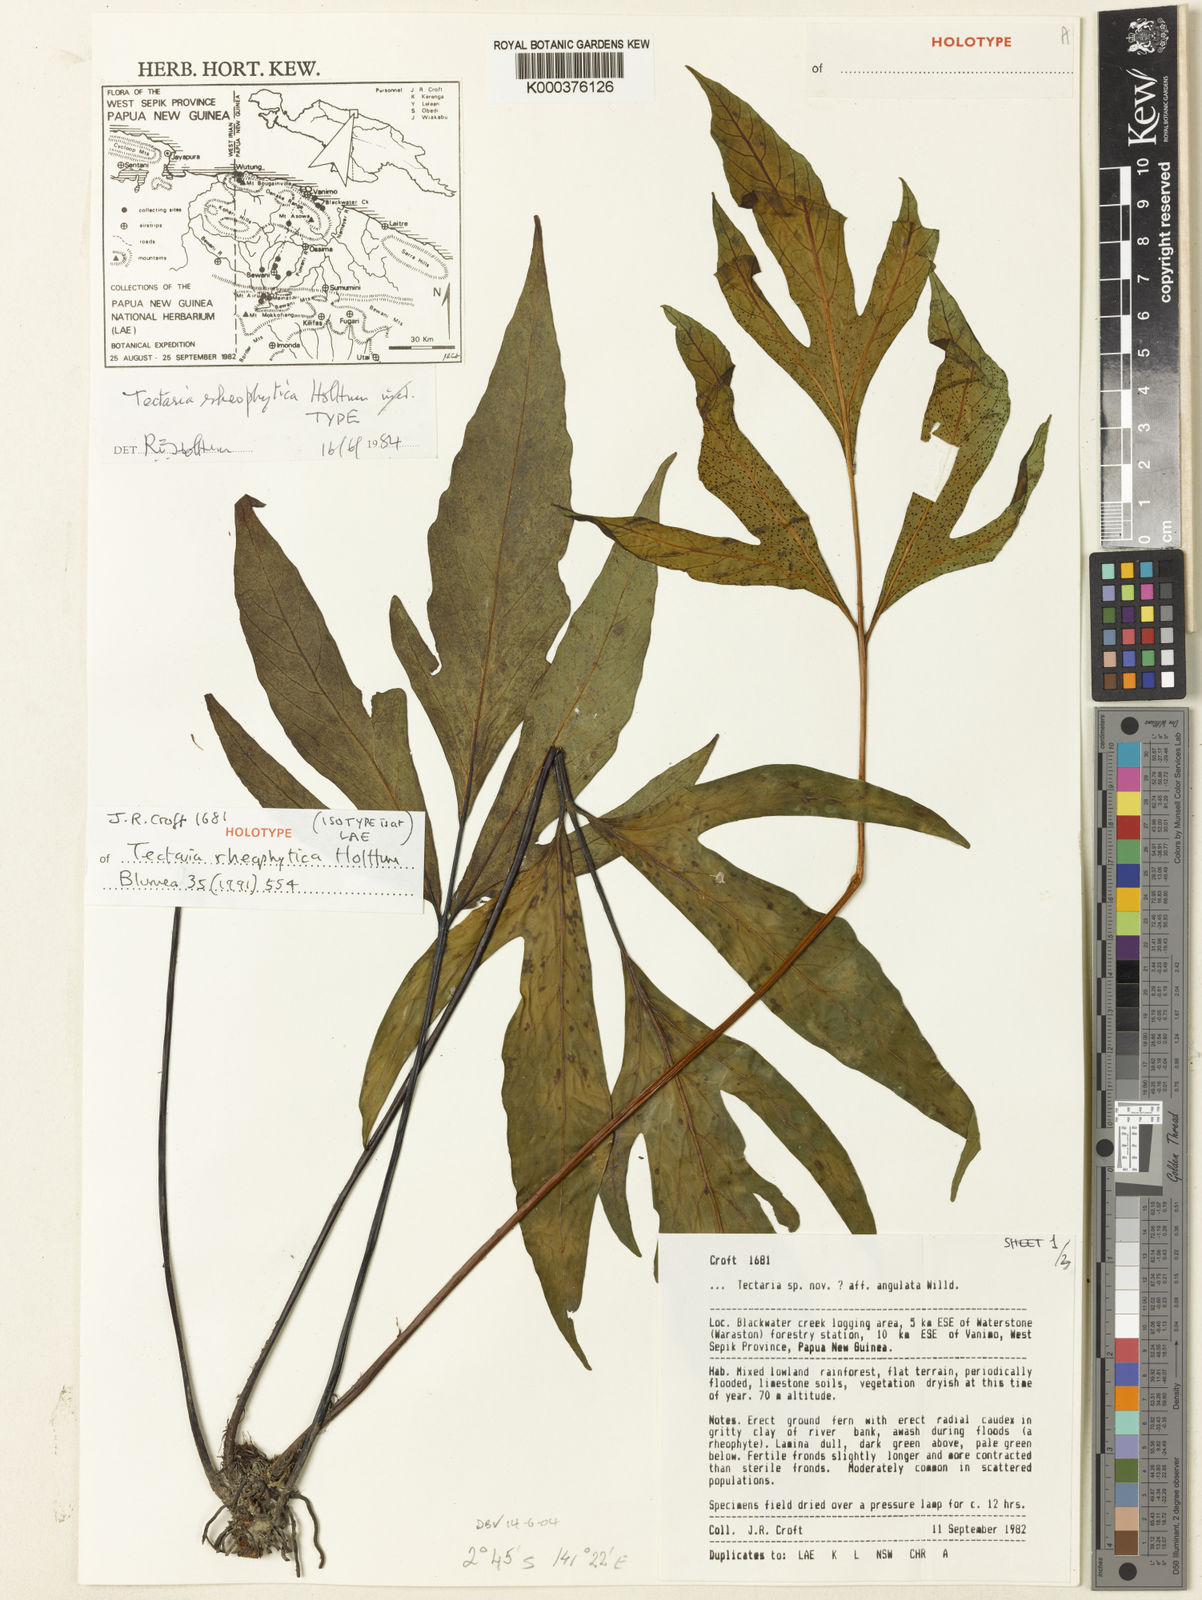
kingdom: Plantae
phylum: Tracheophyta
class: Polypodiopsida
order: Polypodiales
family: Tectariaceae
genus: Tectaria
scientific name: Tectaria rheophytica
